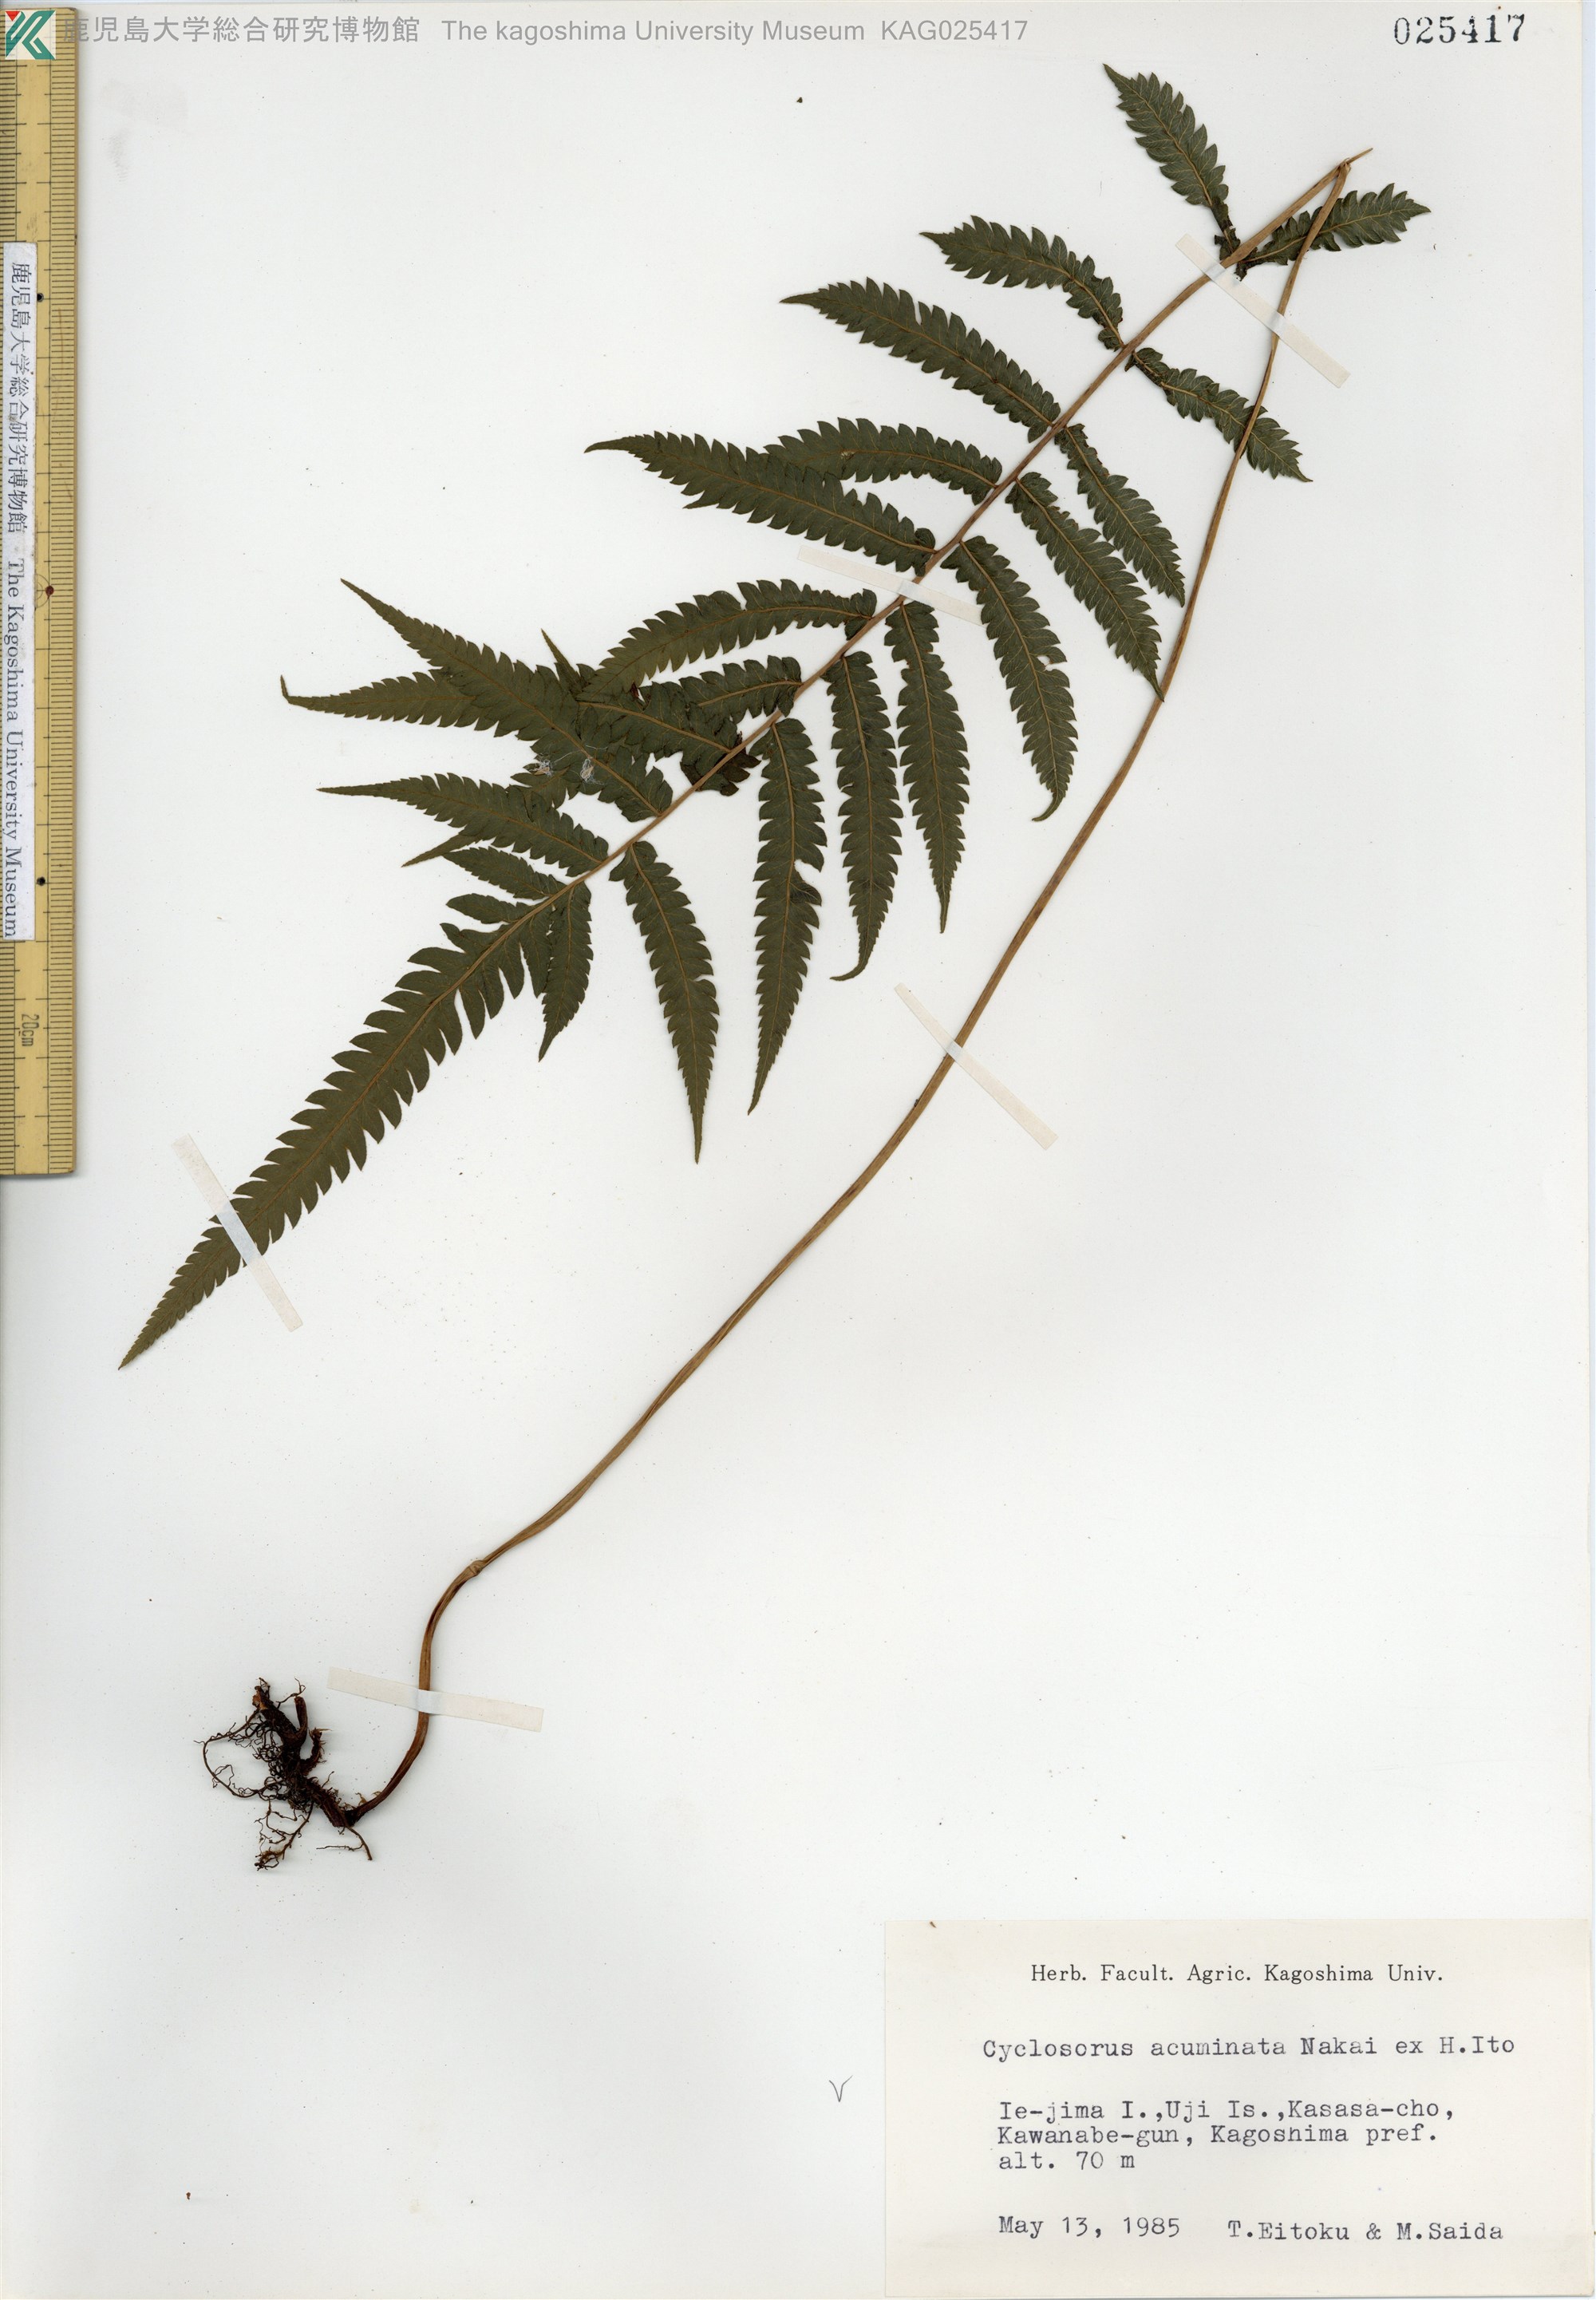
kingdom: Plantae
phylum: Tracheophyta
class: Polypodiopsida
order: Polypodiales
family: Thelypteridaceae
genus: Christella
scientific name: Christella acuminata
